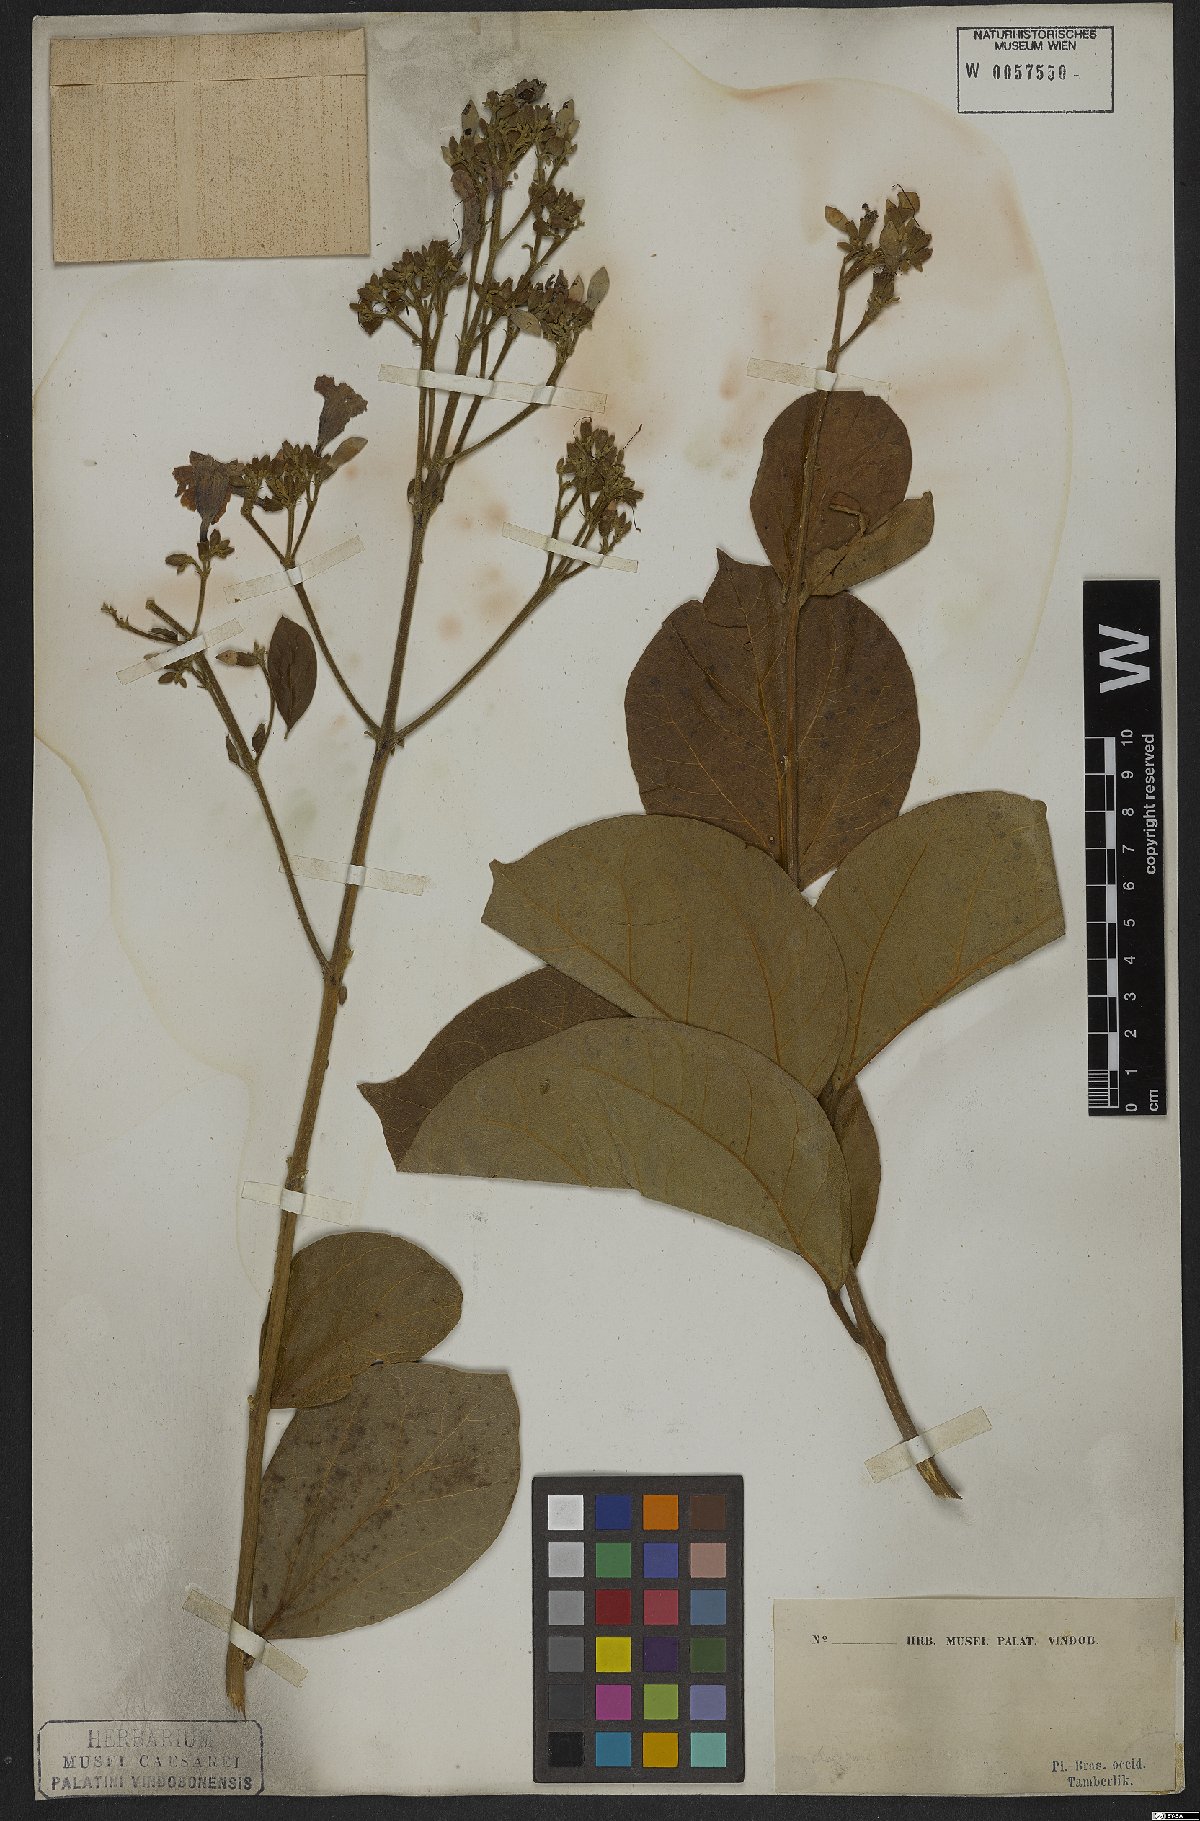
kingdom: Plantae
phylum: Tracheophyta
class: Magnoliopsida
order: Rosales
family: Rhamnaceae
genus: Arrabidaea
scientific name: Arrabidaea
